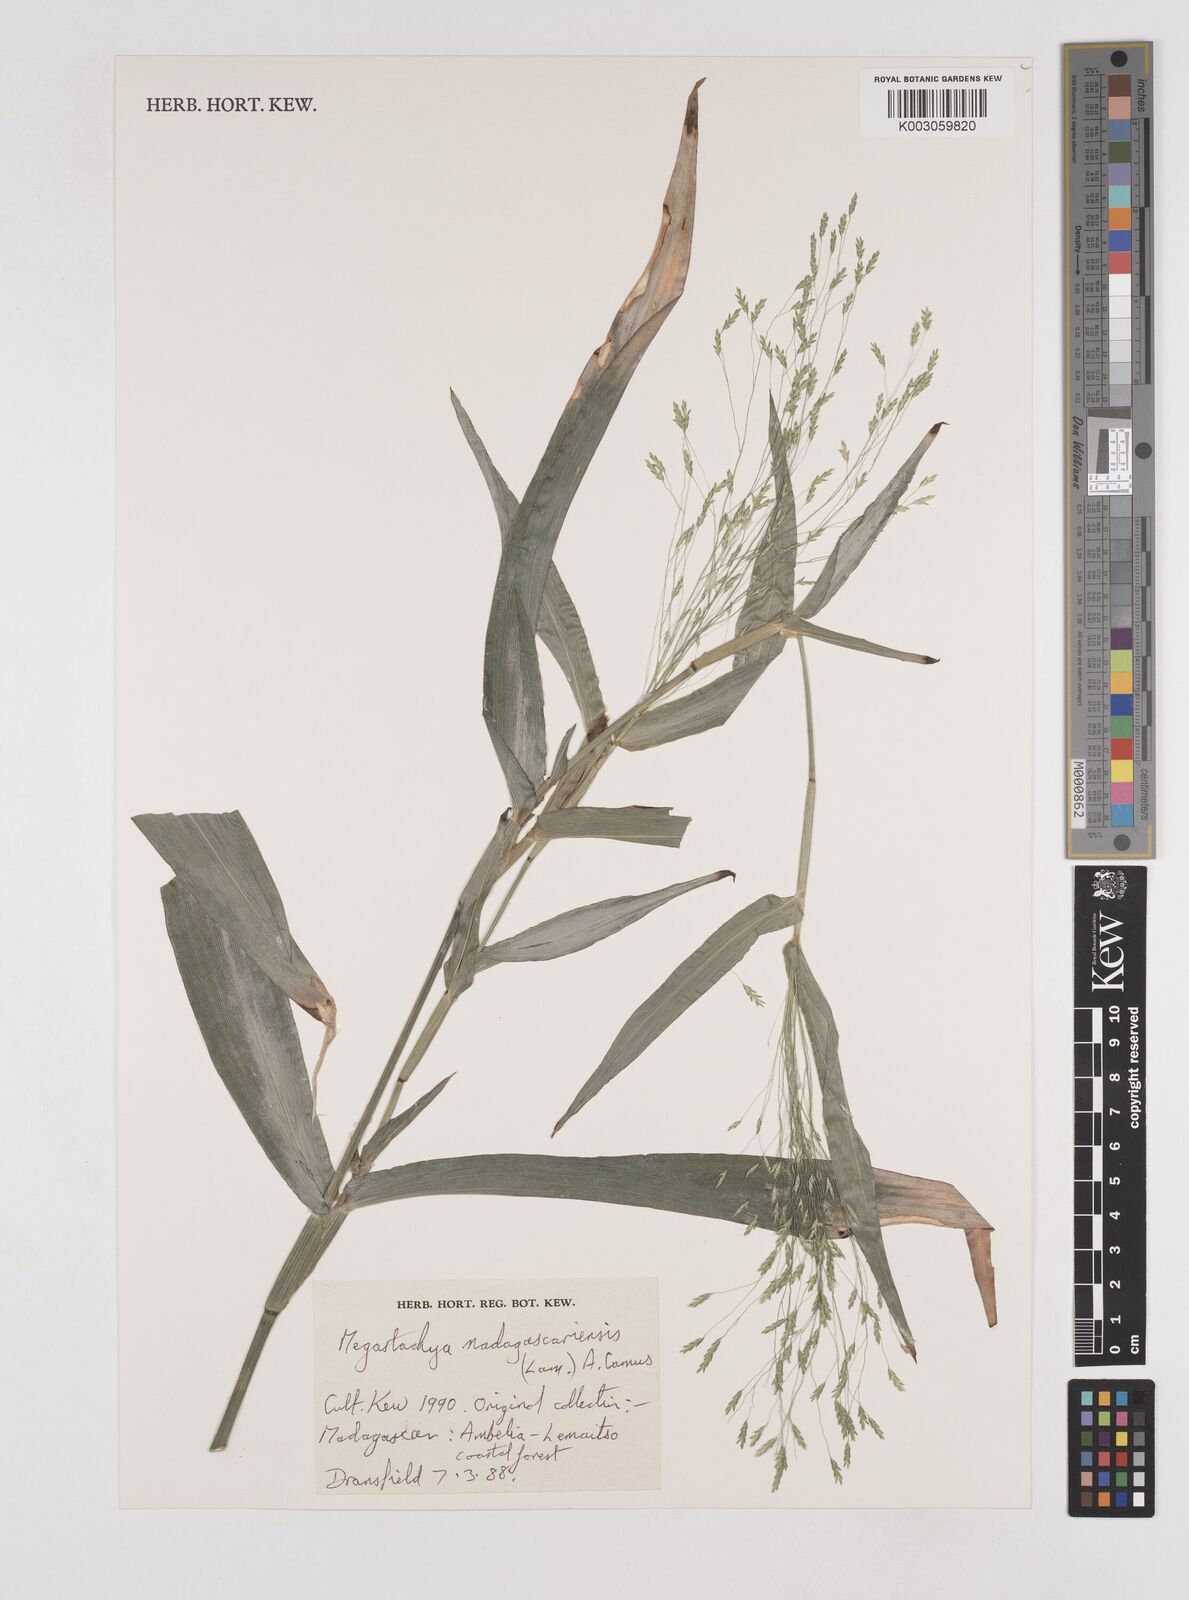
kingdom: Plantae
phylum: Tracheophyta
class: Liliopsida
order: Poales
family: Poaceae
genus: Megastachya
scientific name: Megastachya madagascariensis
